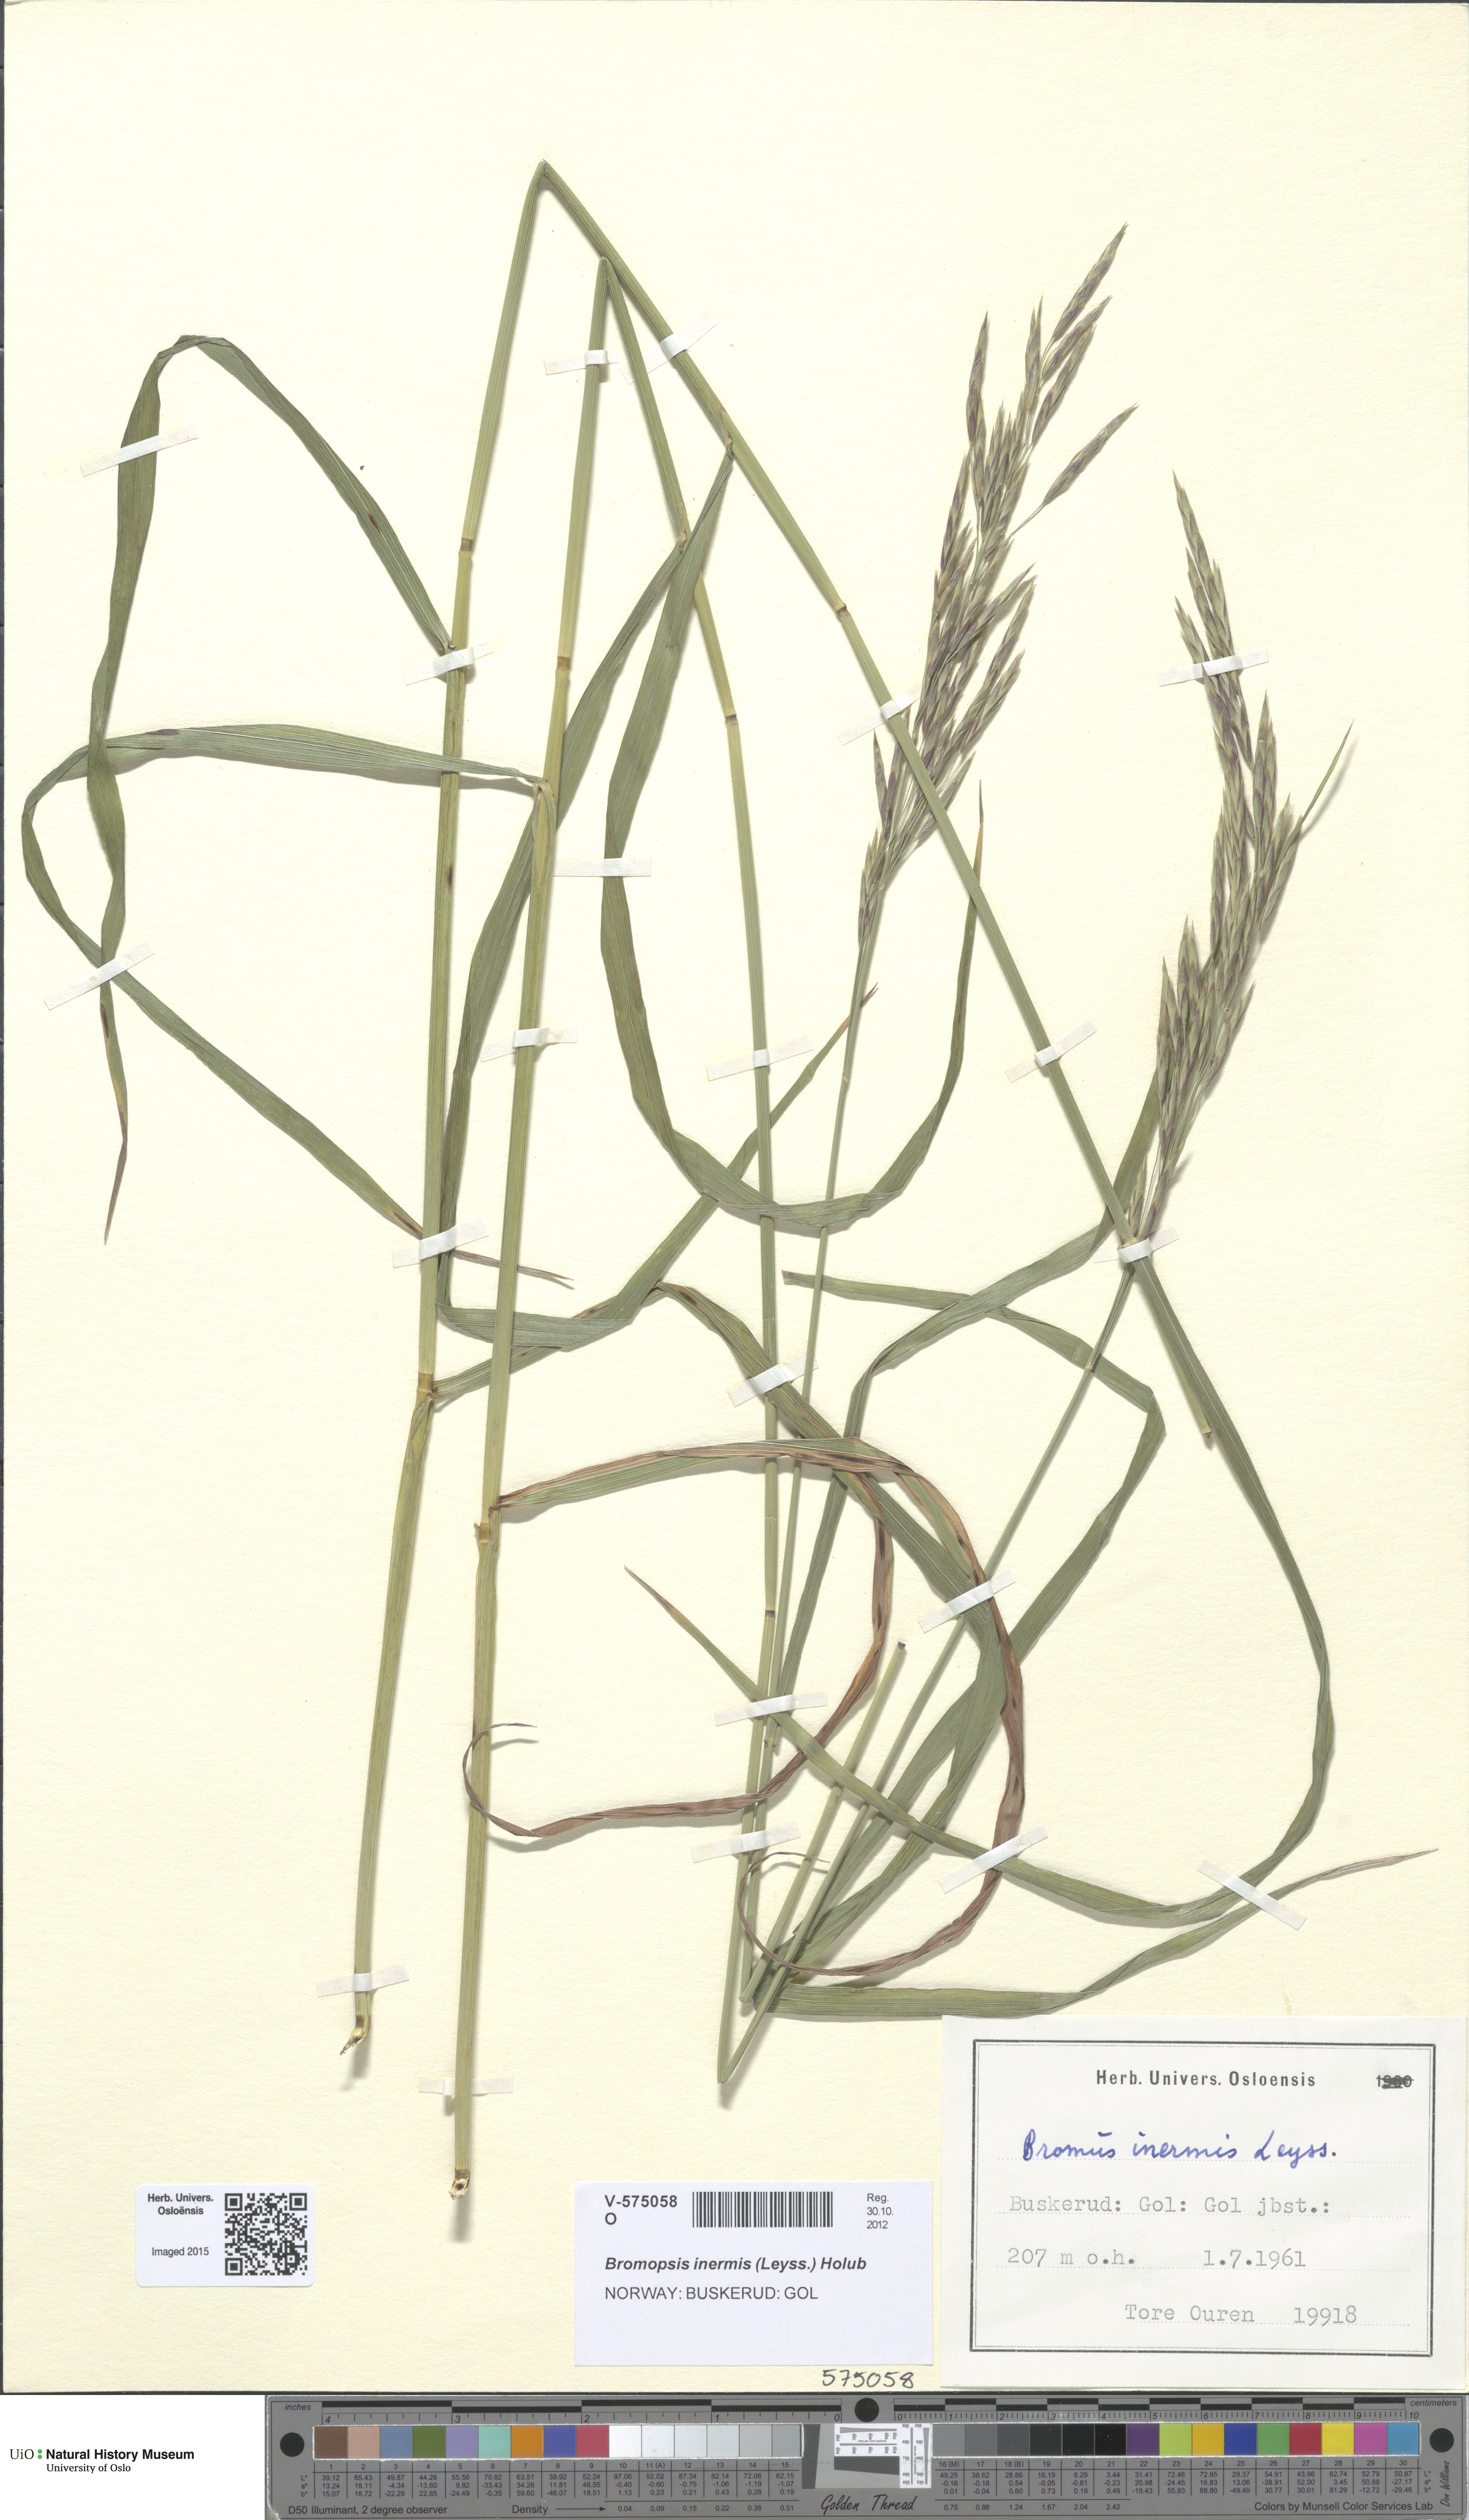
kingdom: Plantae
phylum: Tracheophyta
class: Liliopsida
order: Poales
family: Poaceae
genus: Bromus
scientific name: Bromus inermis
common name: Smooth brome
